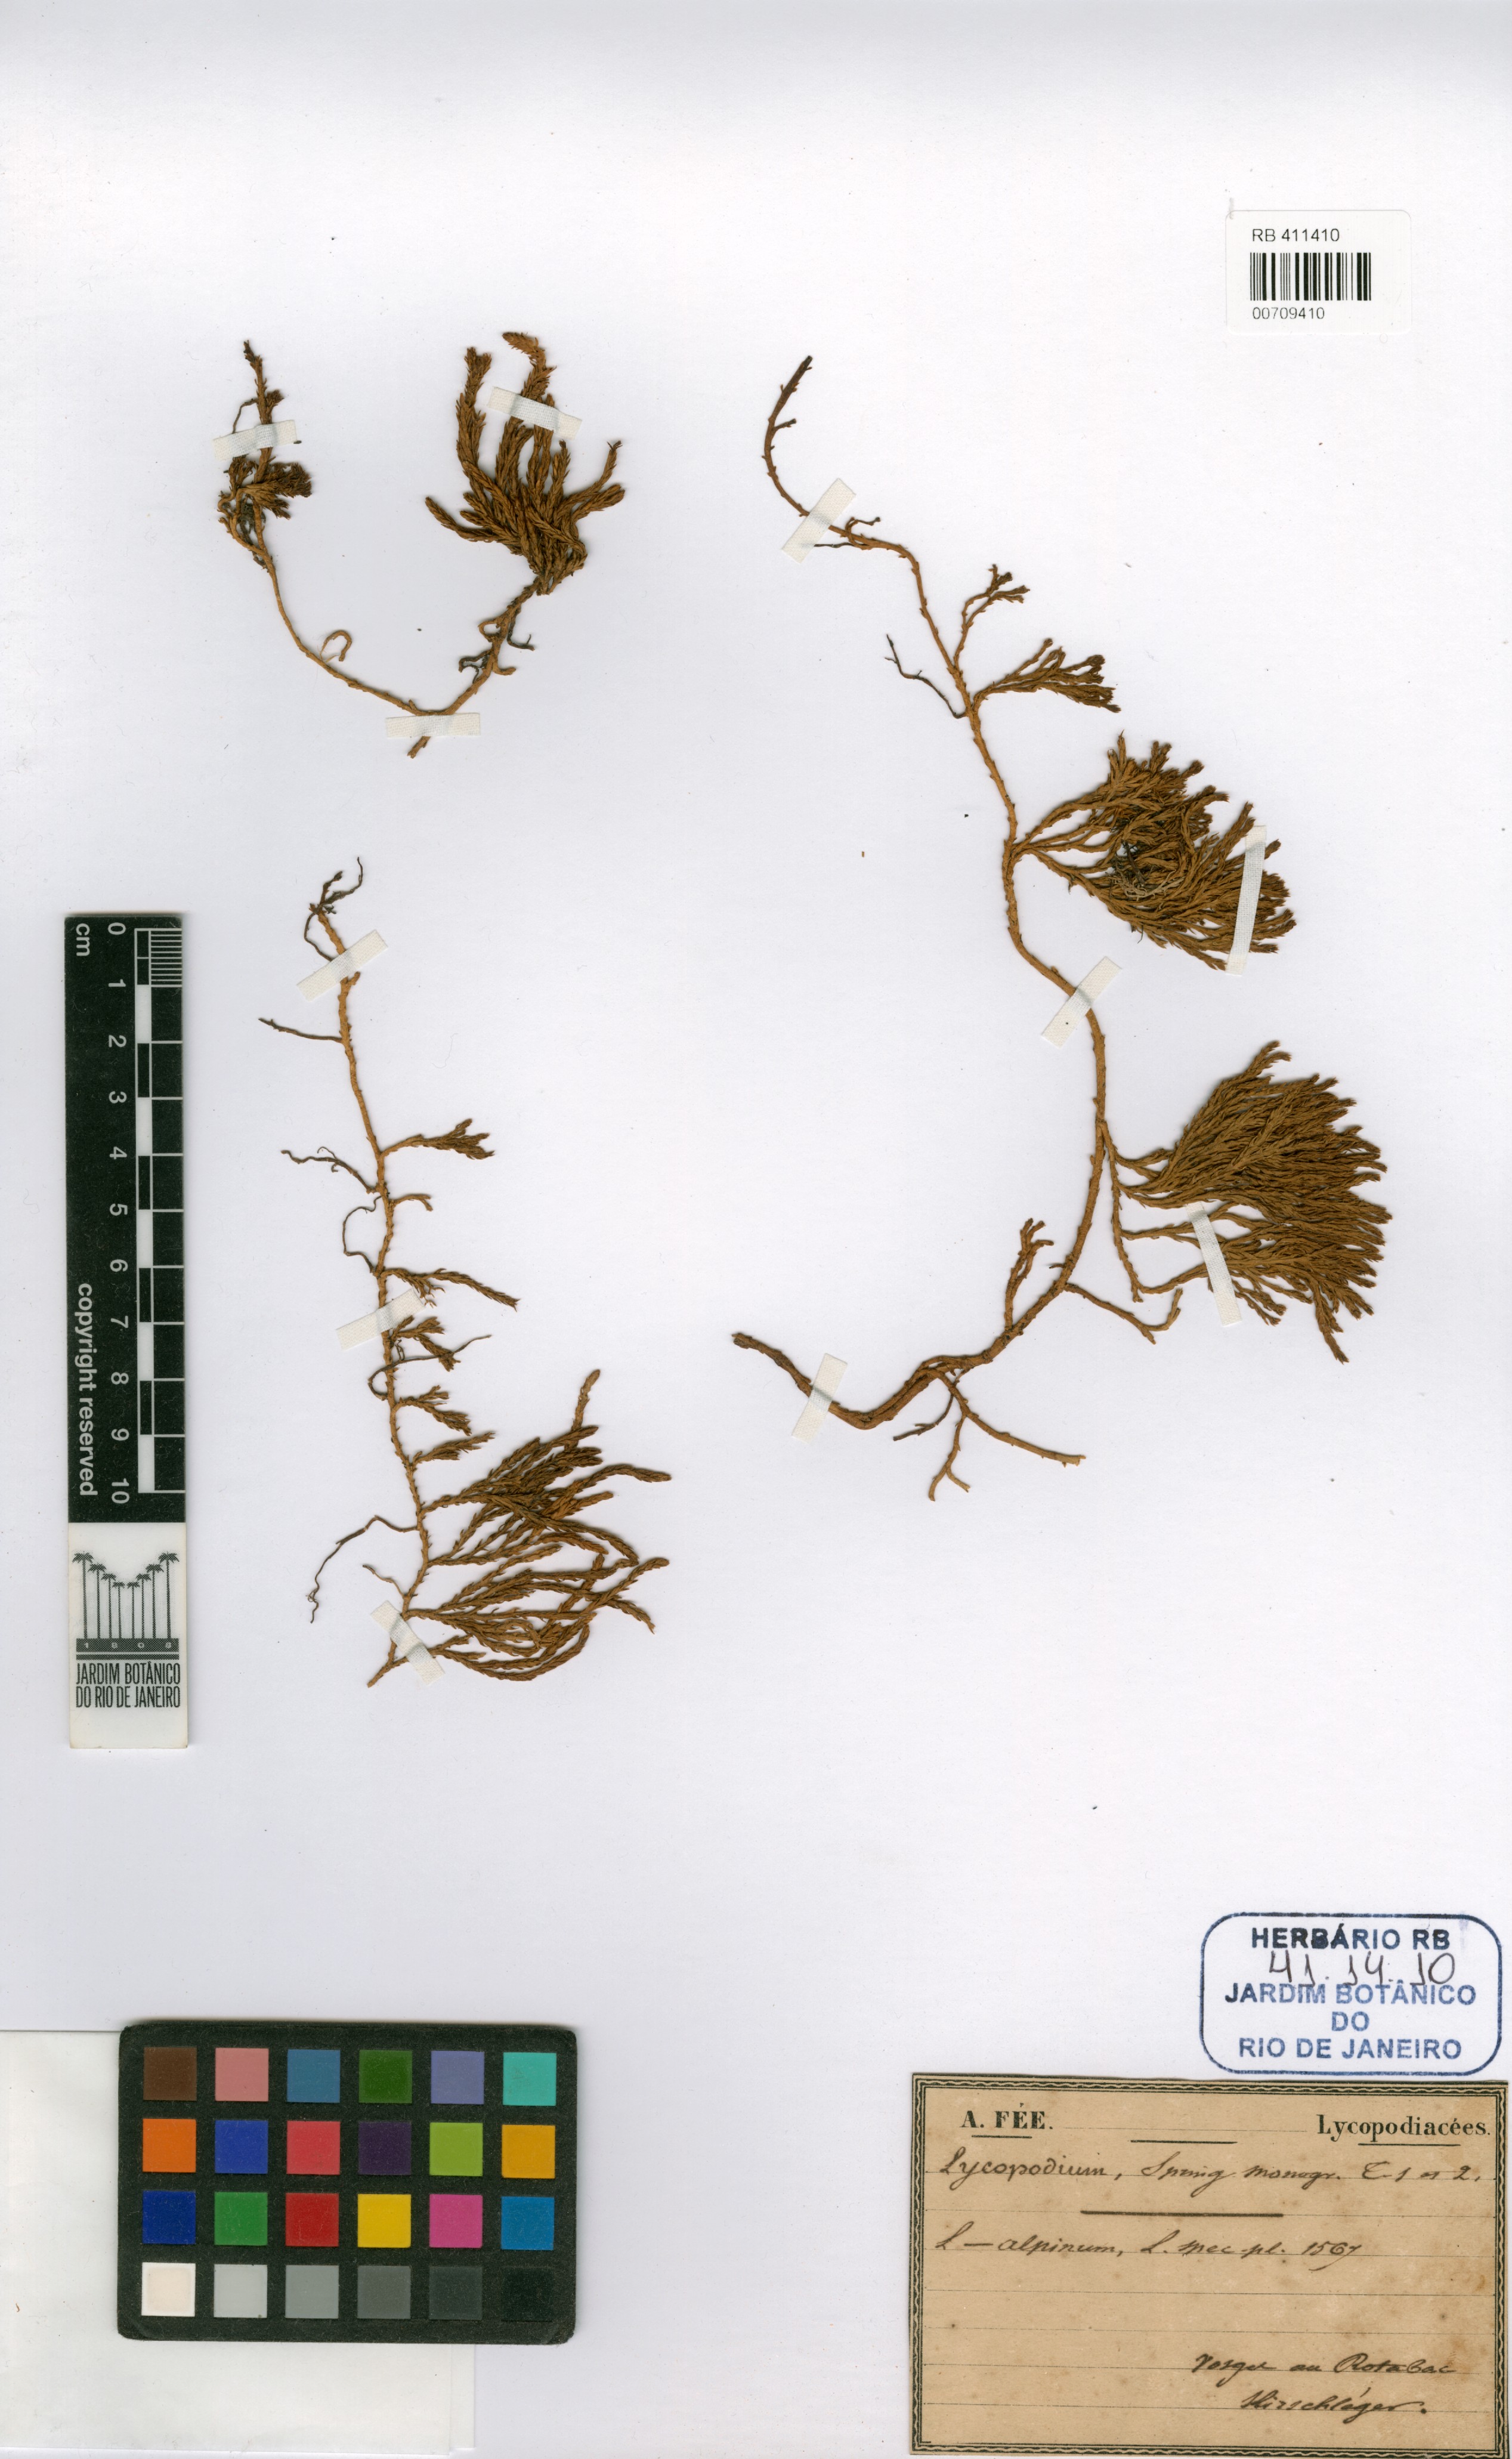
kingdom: Plantae
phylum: Tracheophyta
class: Lycopodiopsida
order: Lycopodiales
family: Lycopodiaceae
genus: Diphasiastrum
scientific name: Diphasiastrum alpinum
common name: Alpine clubmoss
